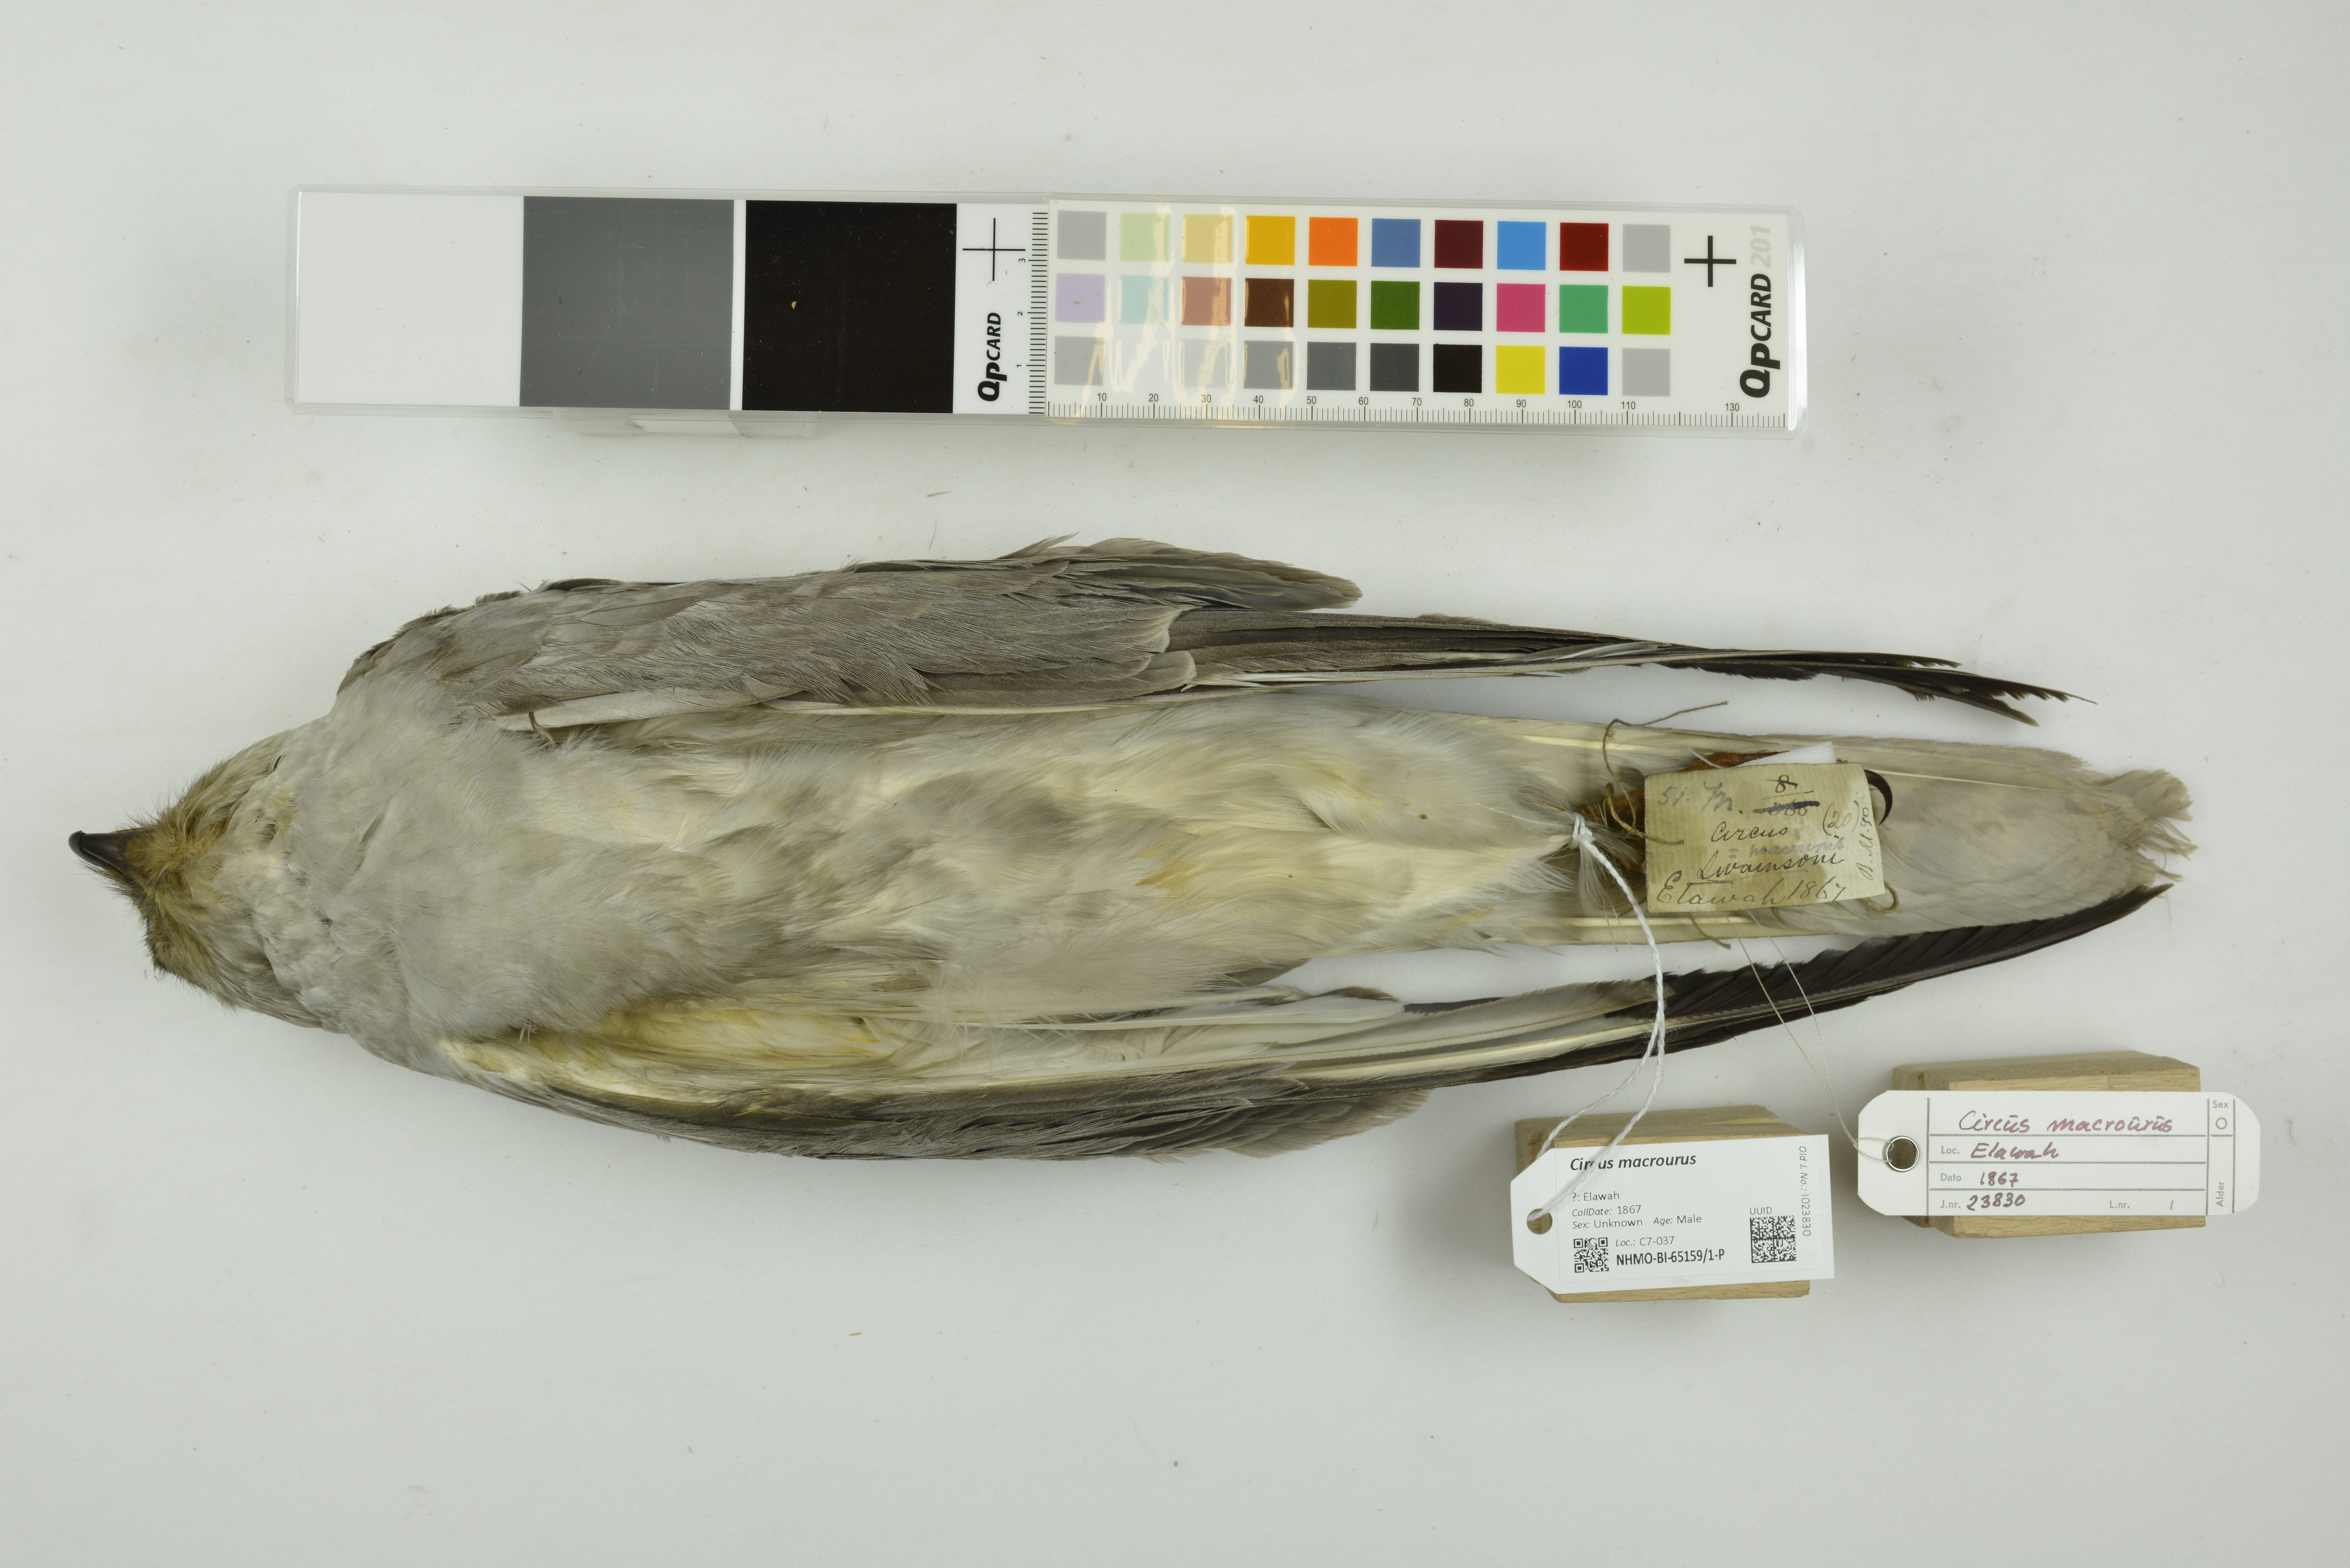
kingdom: Animalia
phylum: Chordata
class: Aves
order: Accipitriformes
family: Accipitridae
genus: Circus
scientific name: Circus macrourus
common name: Pallid harrier
